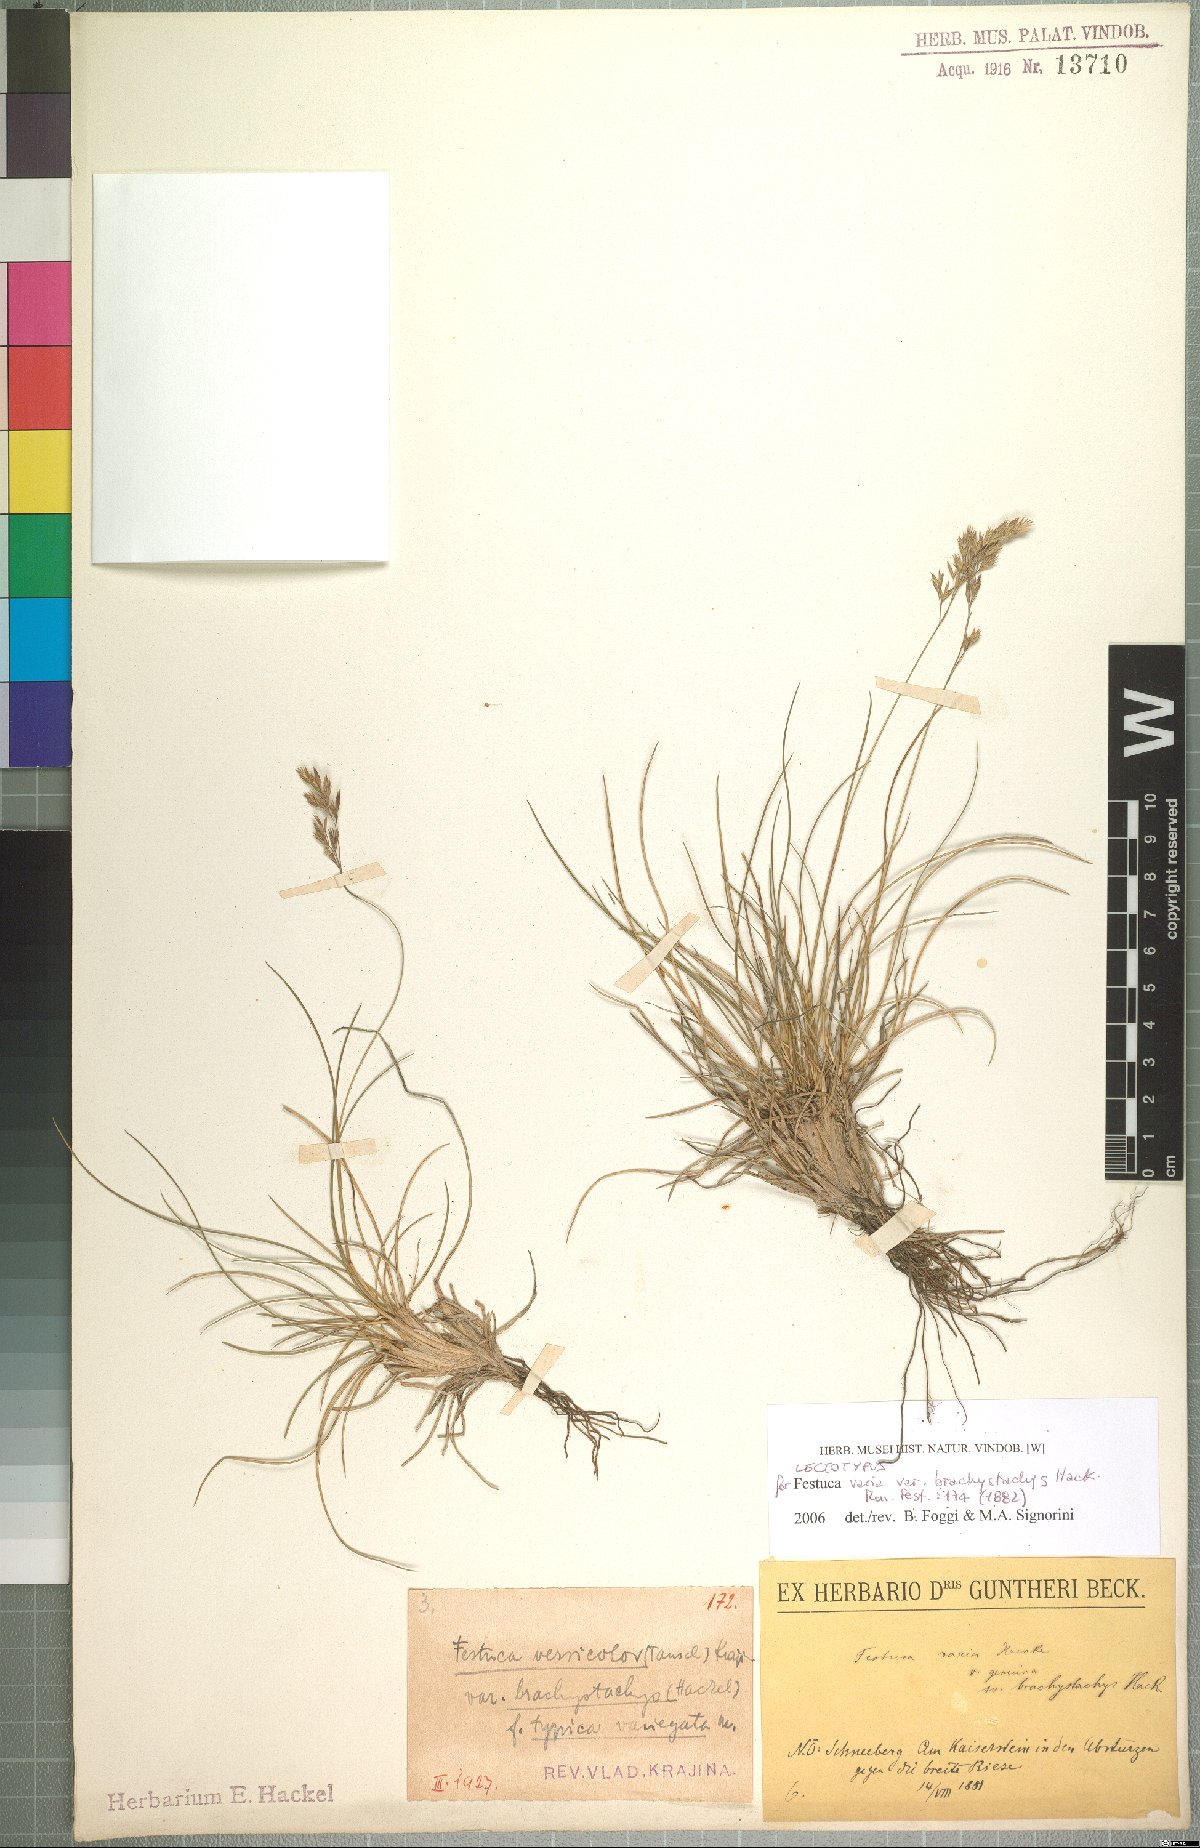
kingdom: Plantae
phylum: Tracheophyta
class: Liliopsida
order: Poales
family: Poaceae
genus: Festuca
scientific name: Festuca varia
